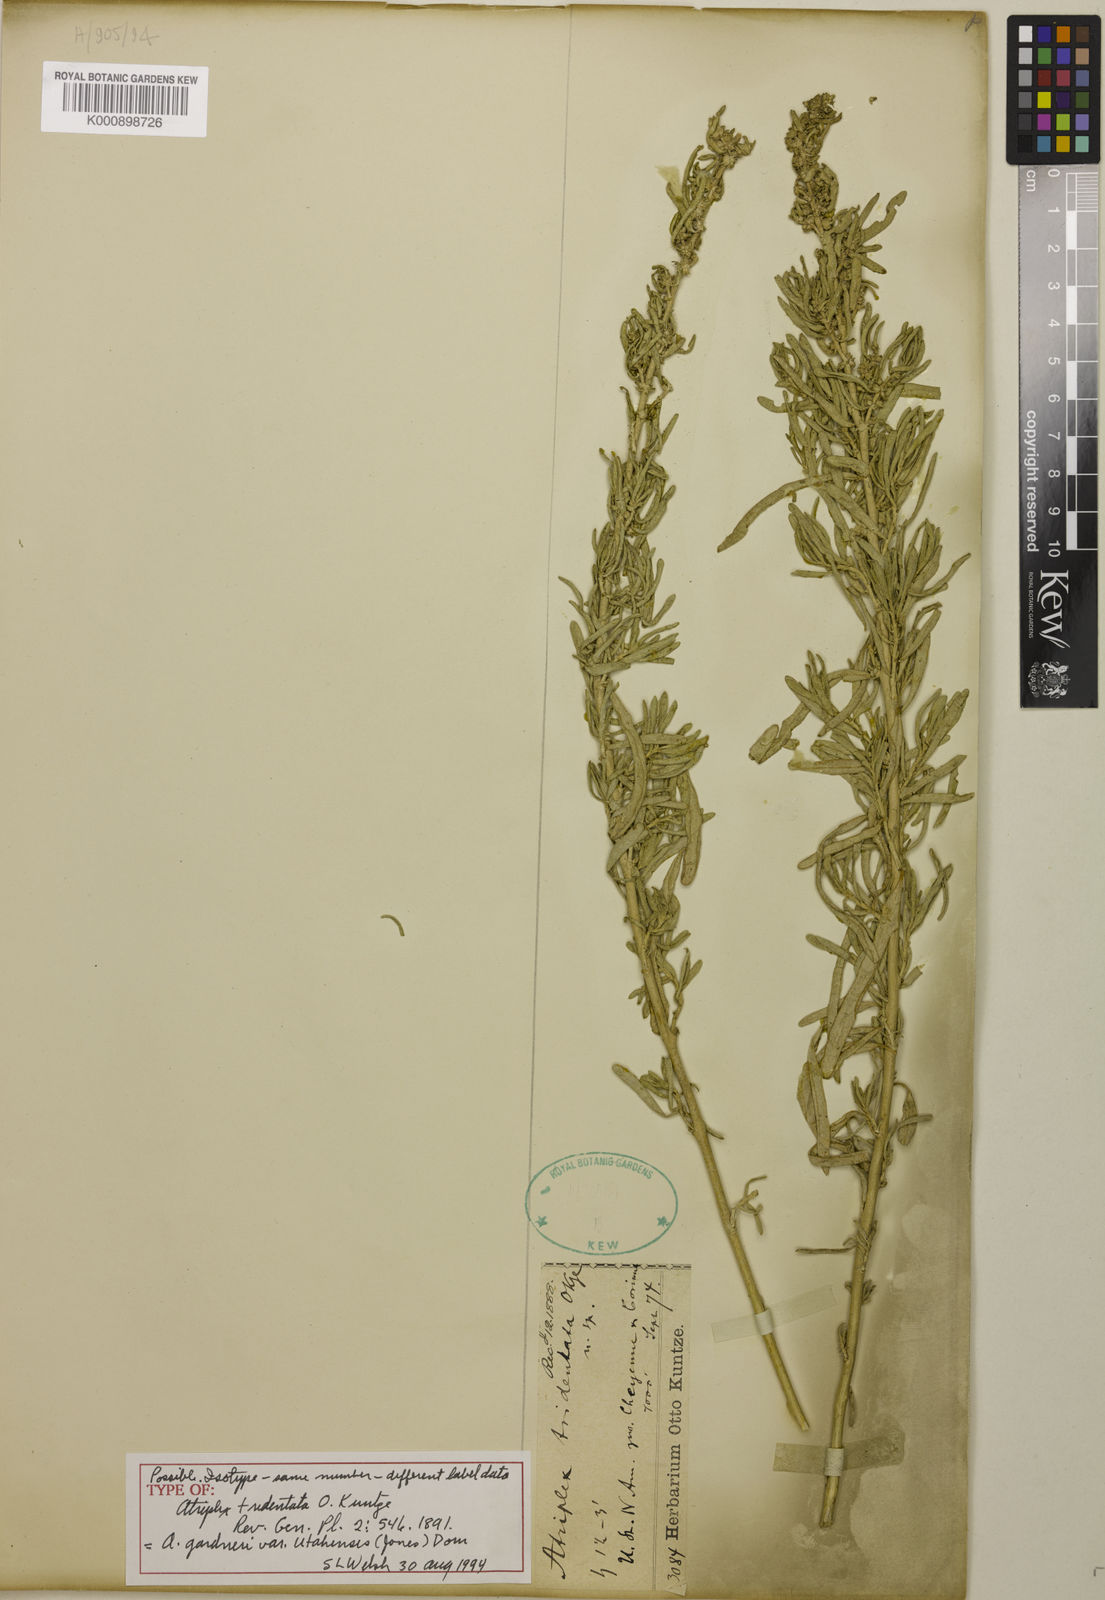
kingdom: Plantae
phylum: Tracheophyta
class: Magnoliopsida
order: Caryophyllales
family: Amaranthaceae
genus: Atriplex
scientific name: Atriplex gardneri
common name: Gardner's orache
